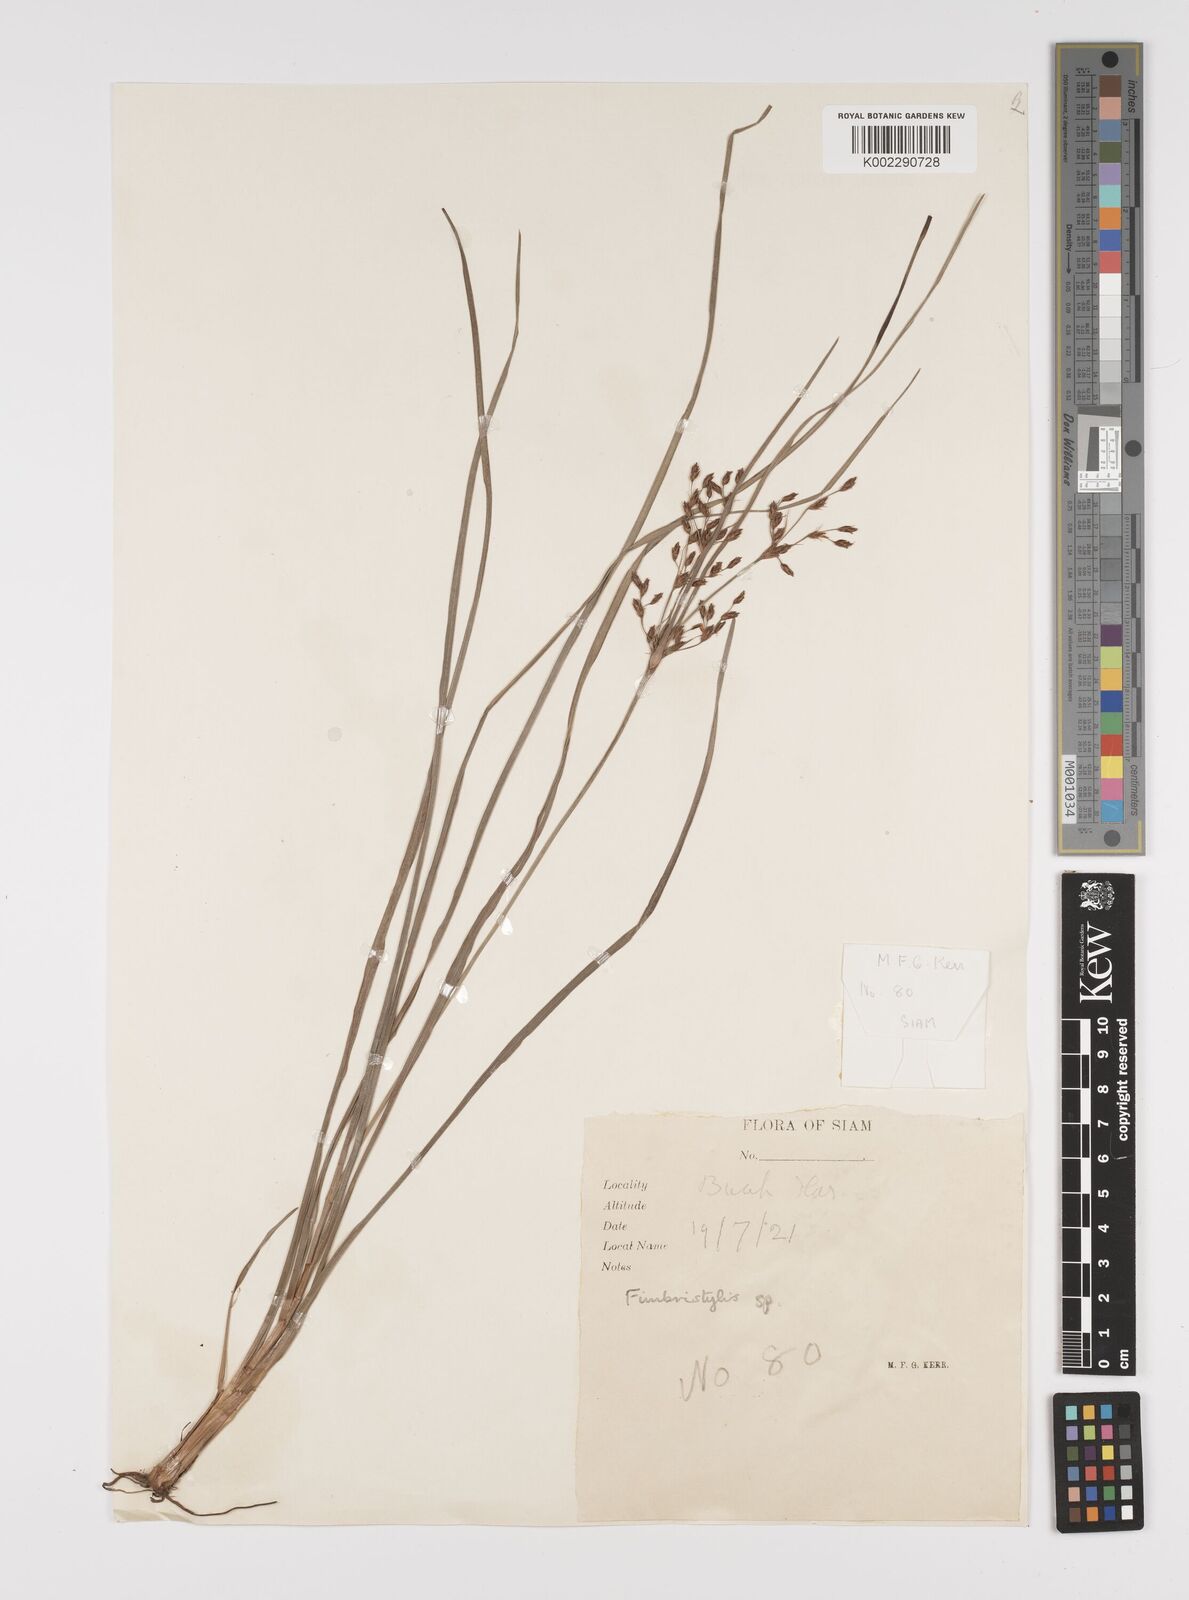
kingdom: Plantae
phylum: Tracheophyta
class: Liliopsida
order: Poales
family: Cyperaceae
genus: Fimbristylis
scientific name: Fimbristylis
